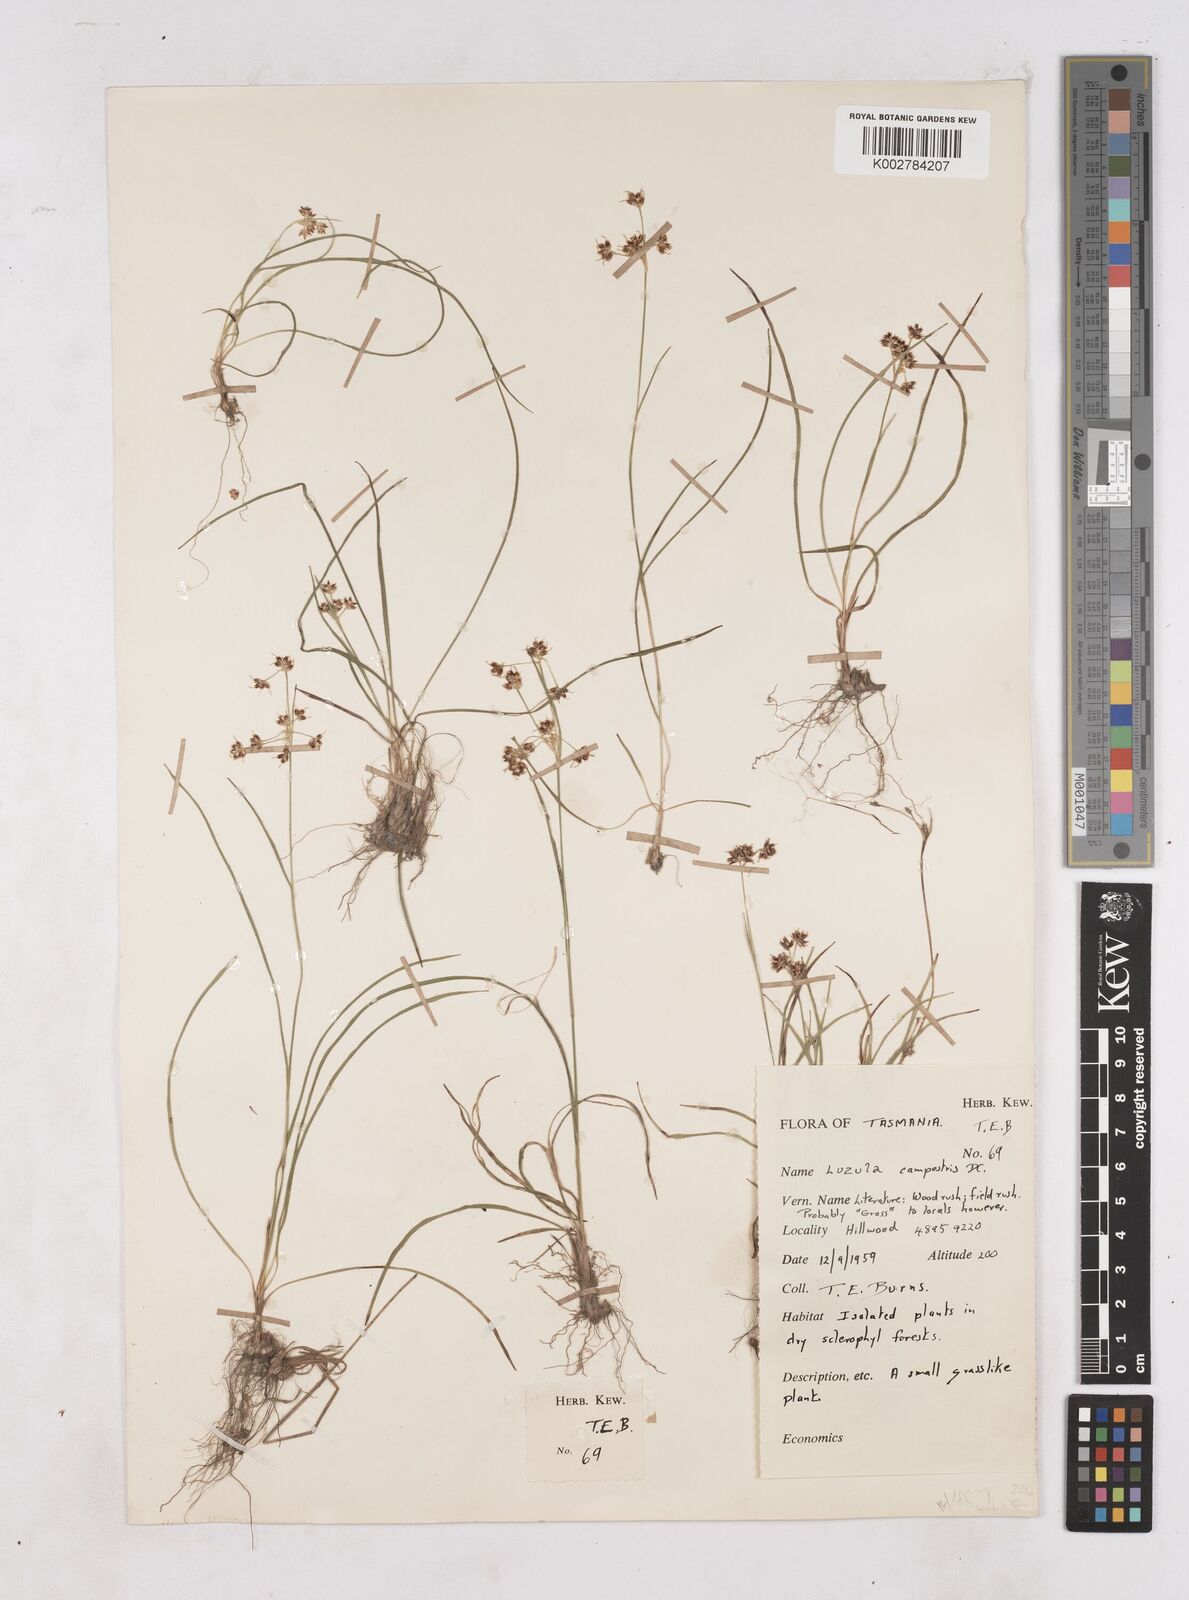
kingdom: Plantae
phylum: Tracheophyta
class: Liliopsida
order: Poales
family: Juncaceae
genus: Luzula
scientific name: Luzula campestris
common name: Field wood-rush
